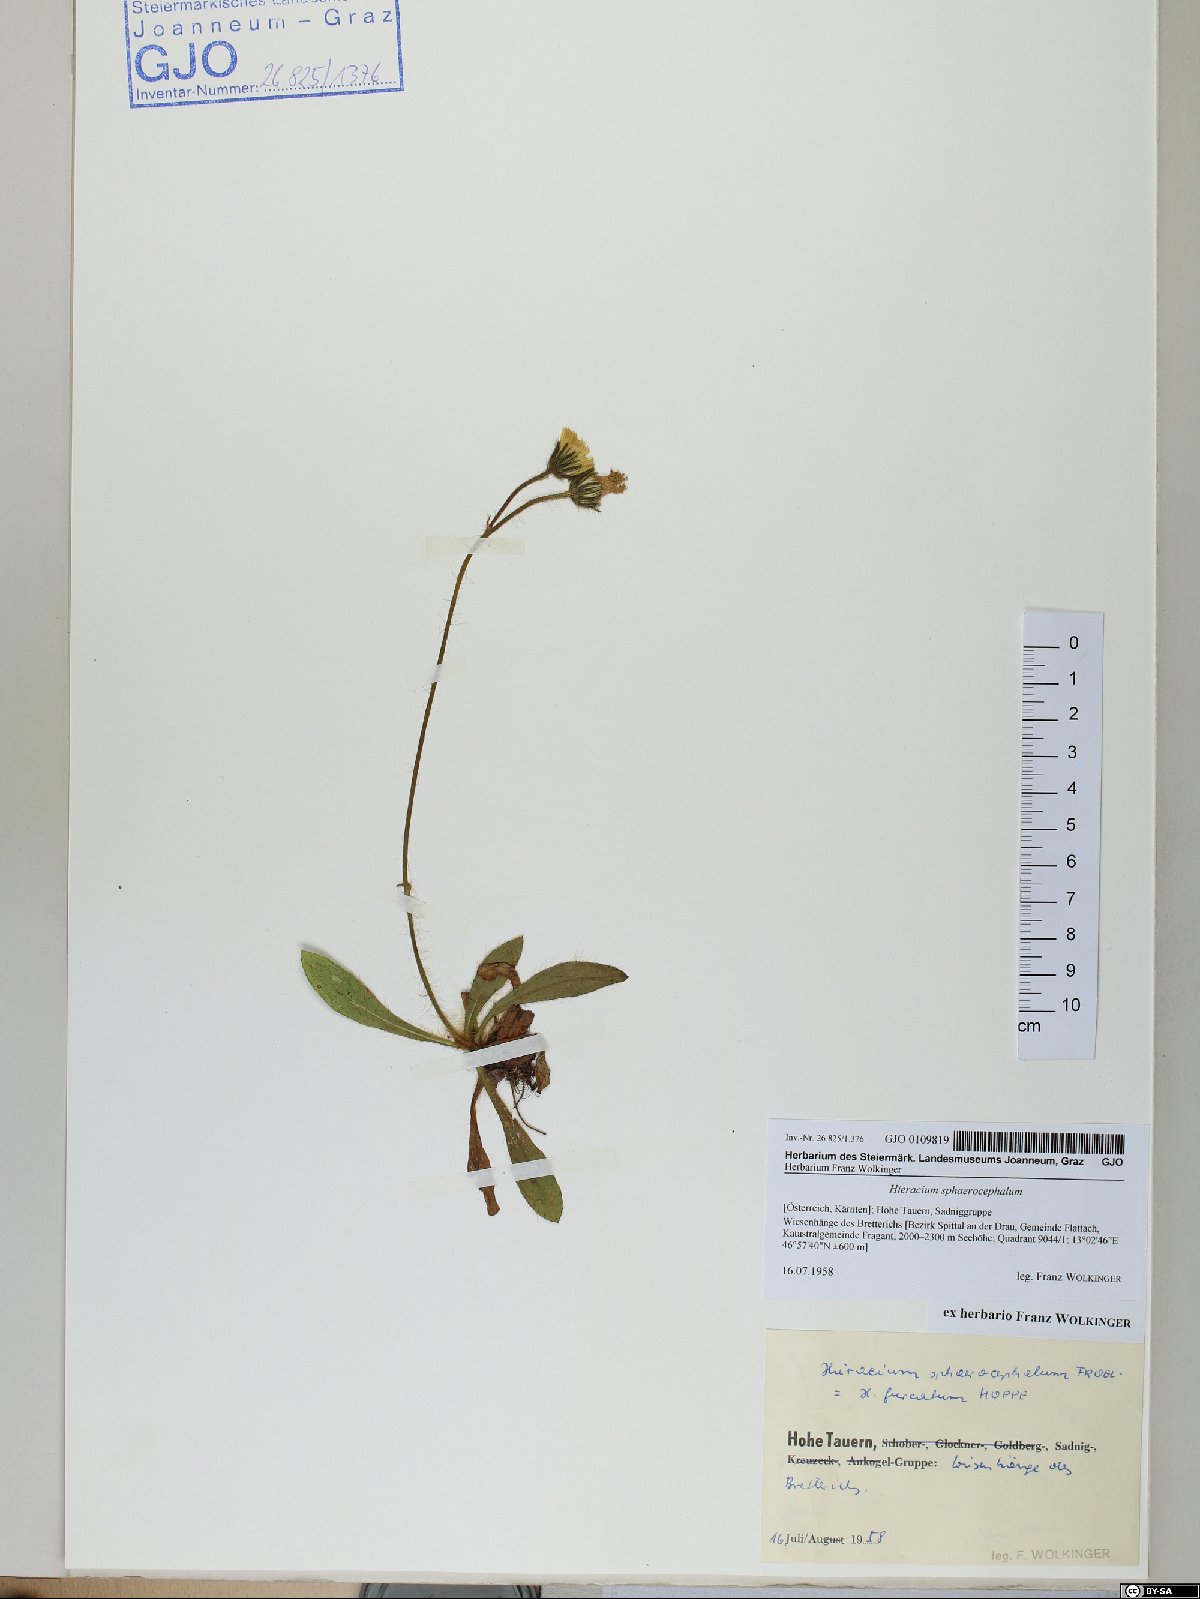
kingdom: Plantae
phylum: Tracheophyta
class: Magnoliopsida
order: Asterales
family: Asteraceae
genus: Pilosella
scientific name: Pilosella sphaerocephala
